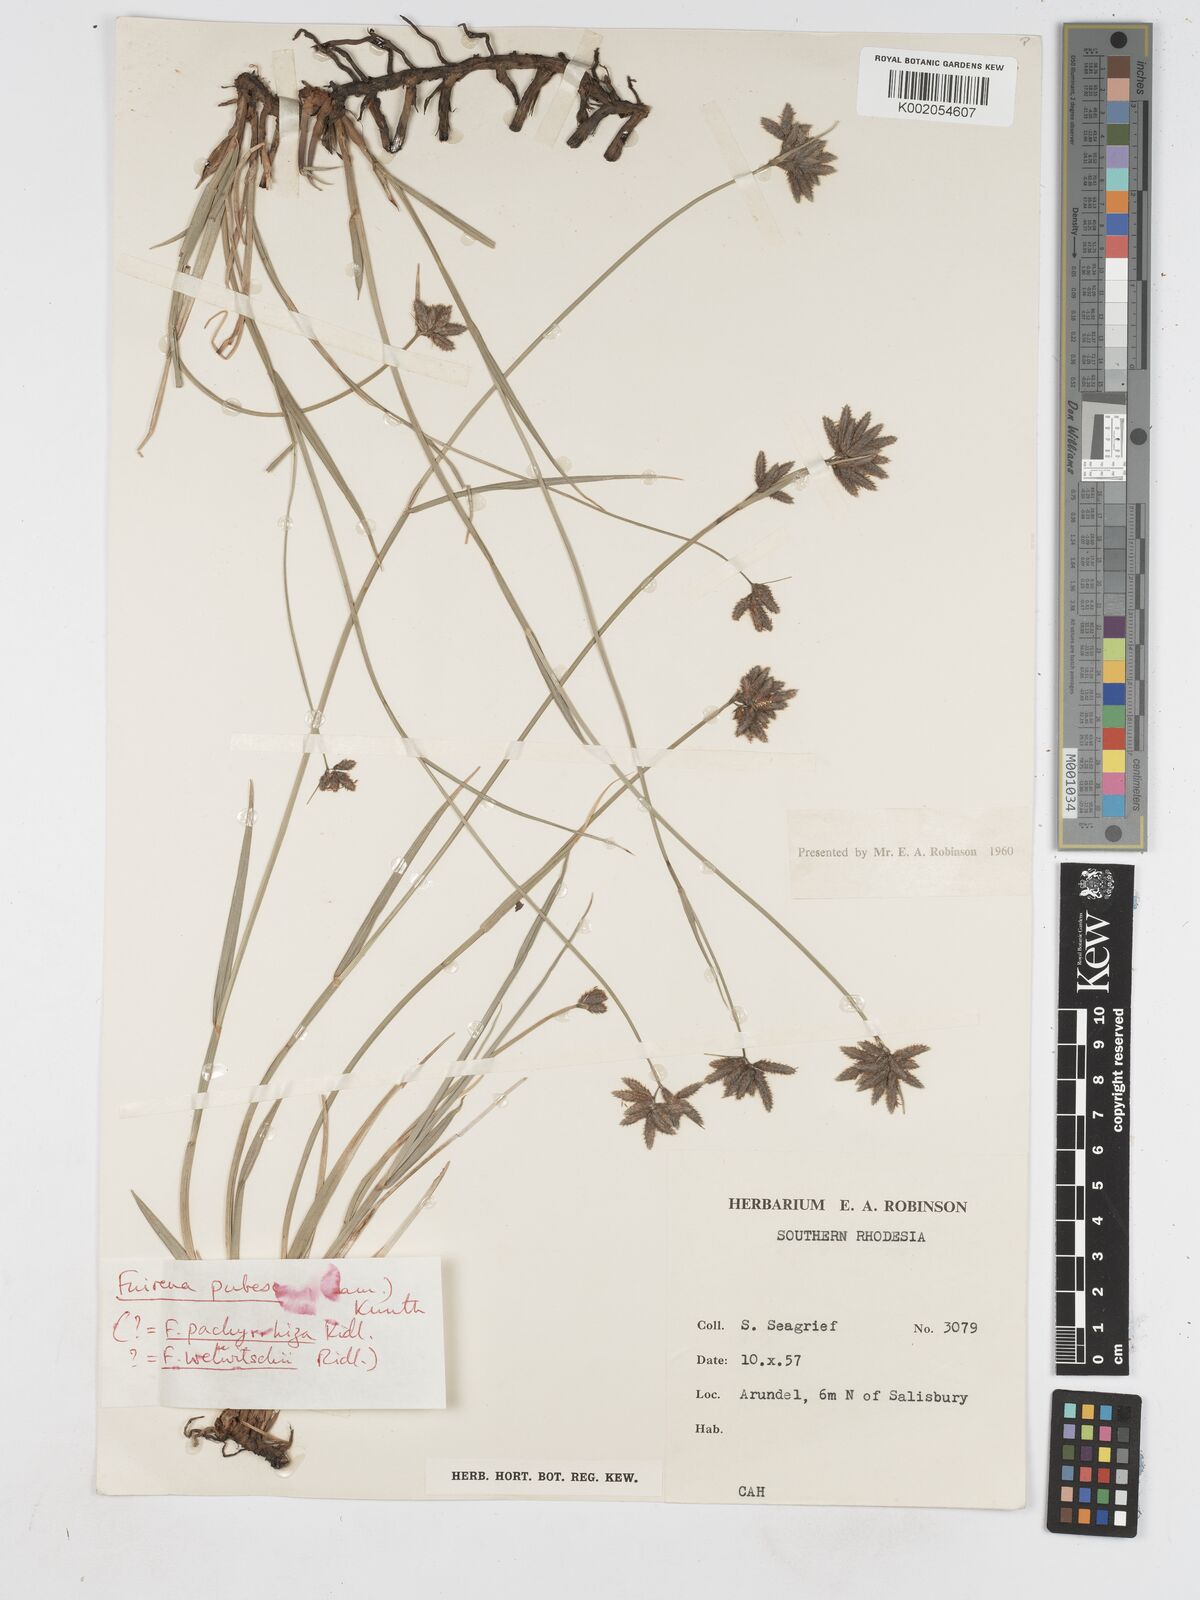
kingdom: Plantae
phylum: Tracheophyta
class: Liliopsida
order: Poales
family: Cyperaceae
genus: Fuirena
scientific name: Fuirena welwitschii
